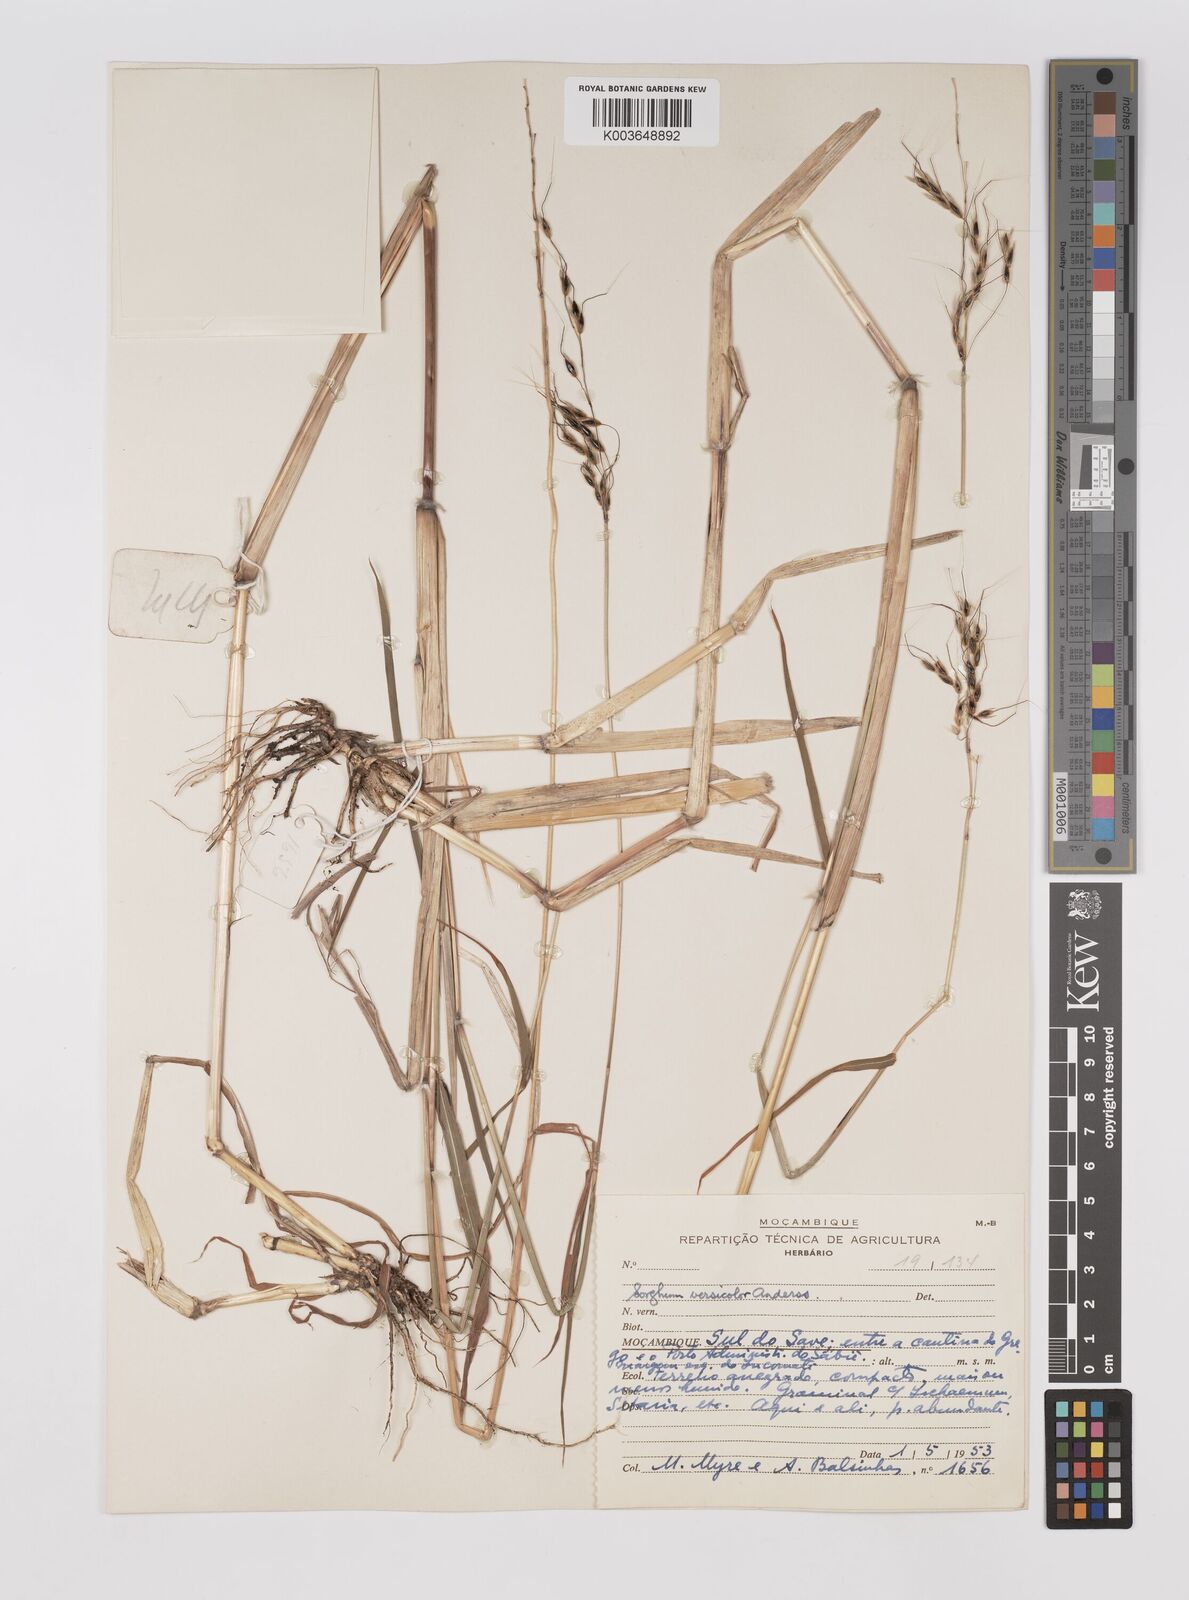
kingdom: Plantae
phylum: Tracheophyta
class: Liliopsida
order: Poales
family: Poaceae
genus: Sarga
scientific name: Sarga versicolor
